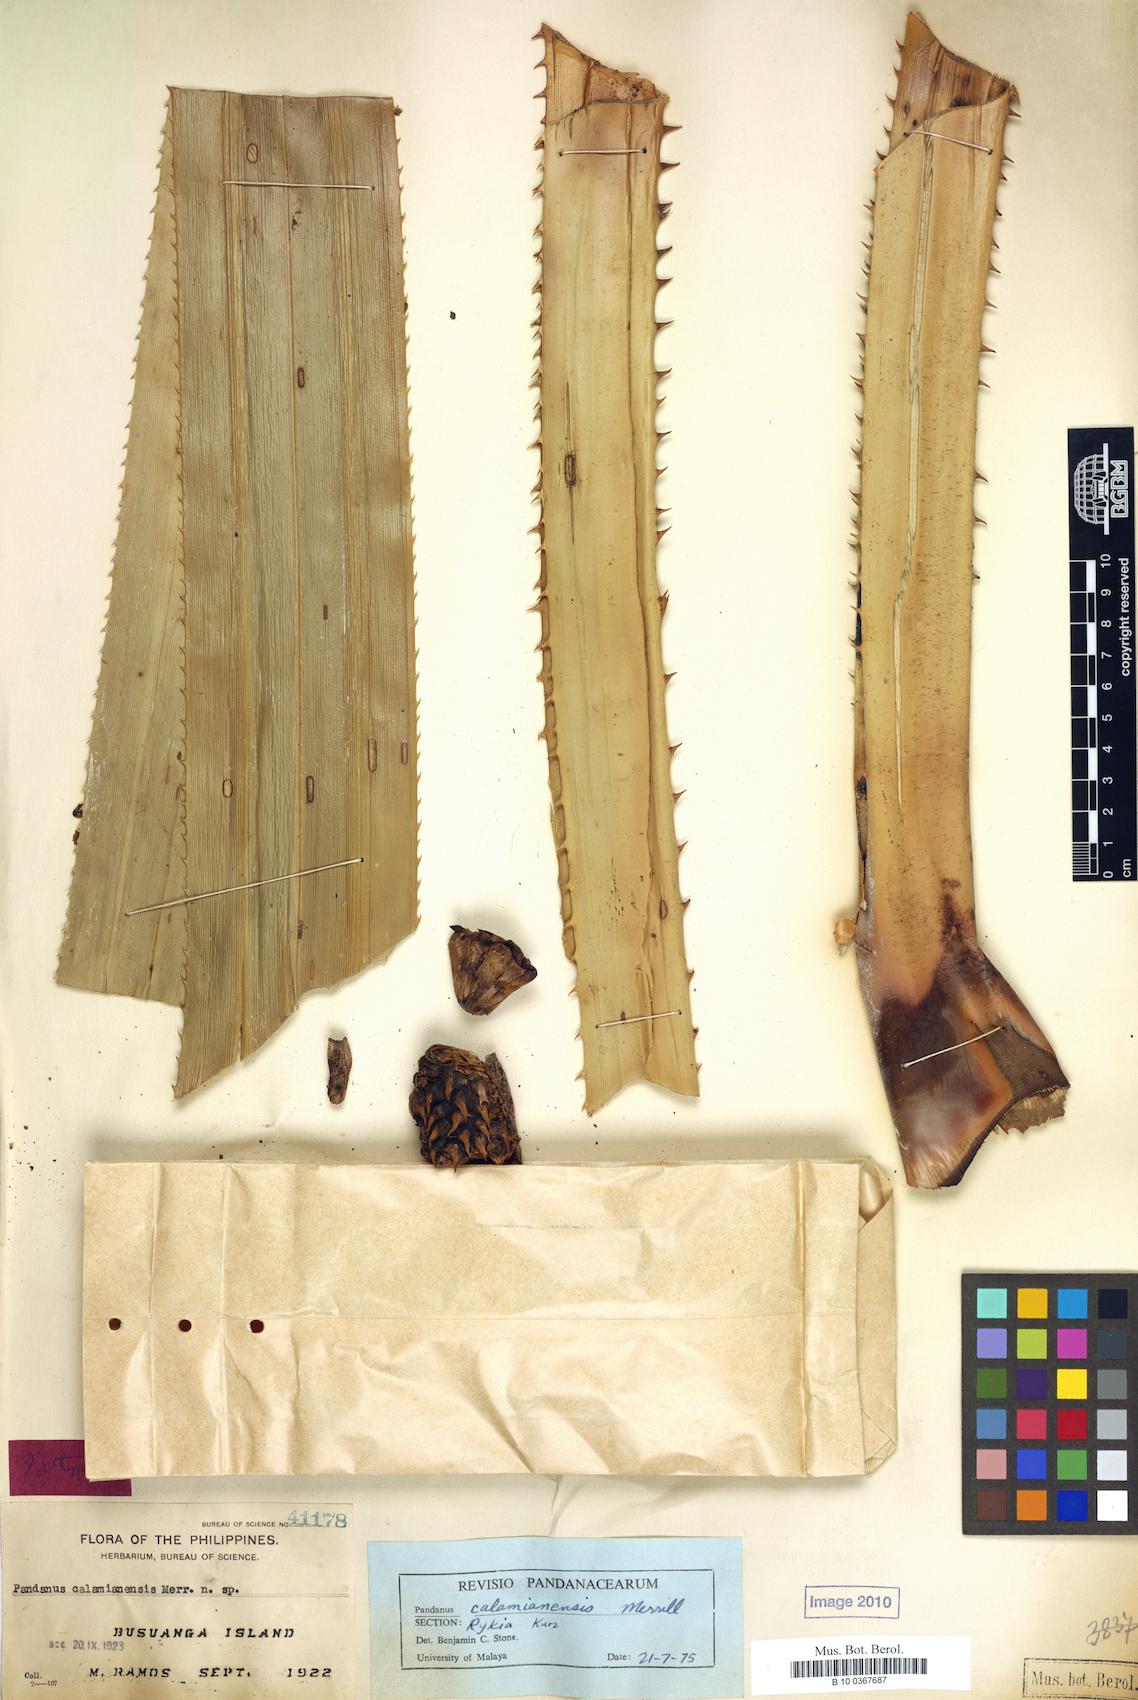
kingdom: Plantae
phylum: Tracheophyta
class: Liliopsida
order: Pandanales
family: Pandanaceae
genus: Pandanus
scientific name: Pandanus calamianensis
